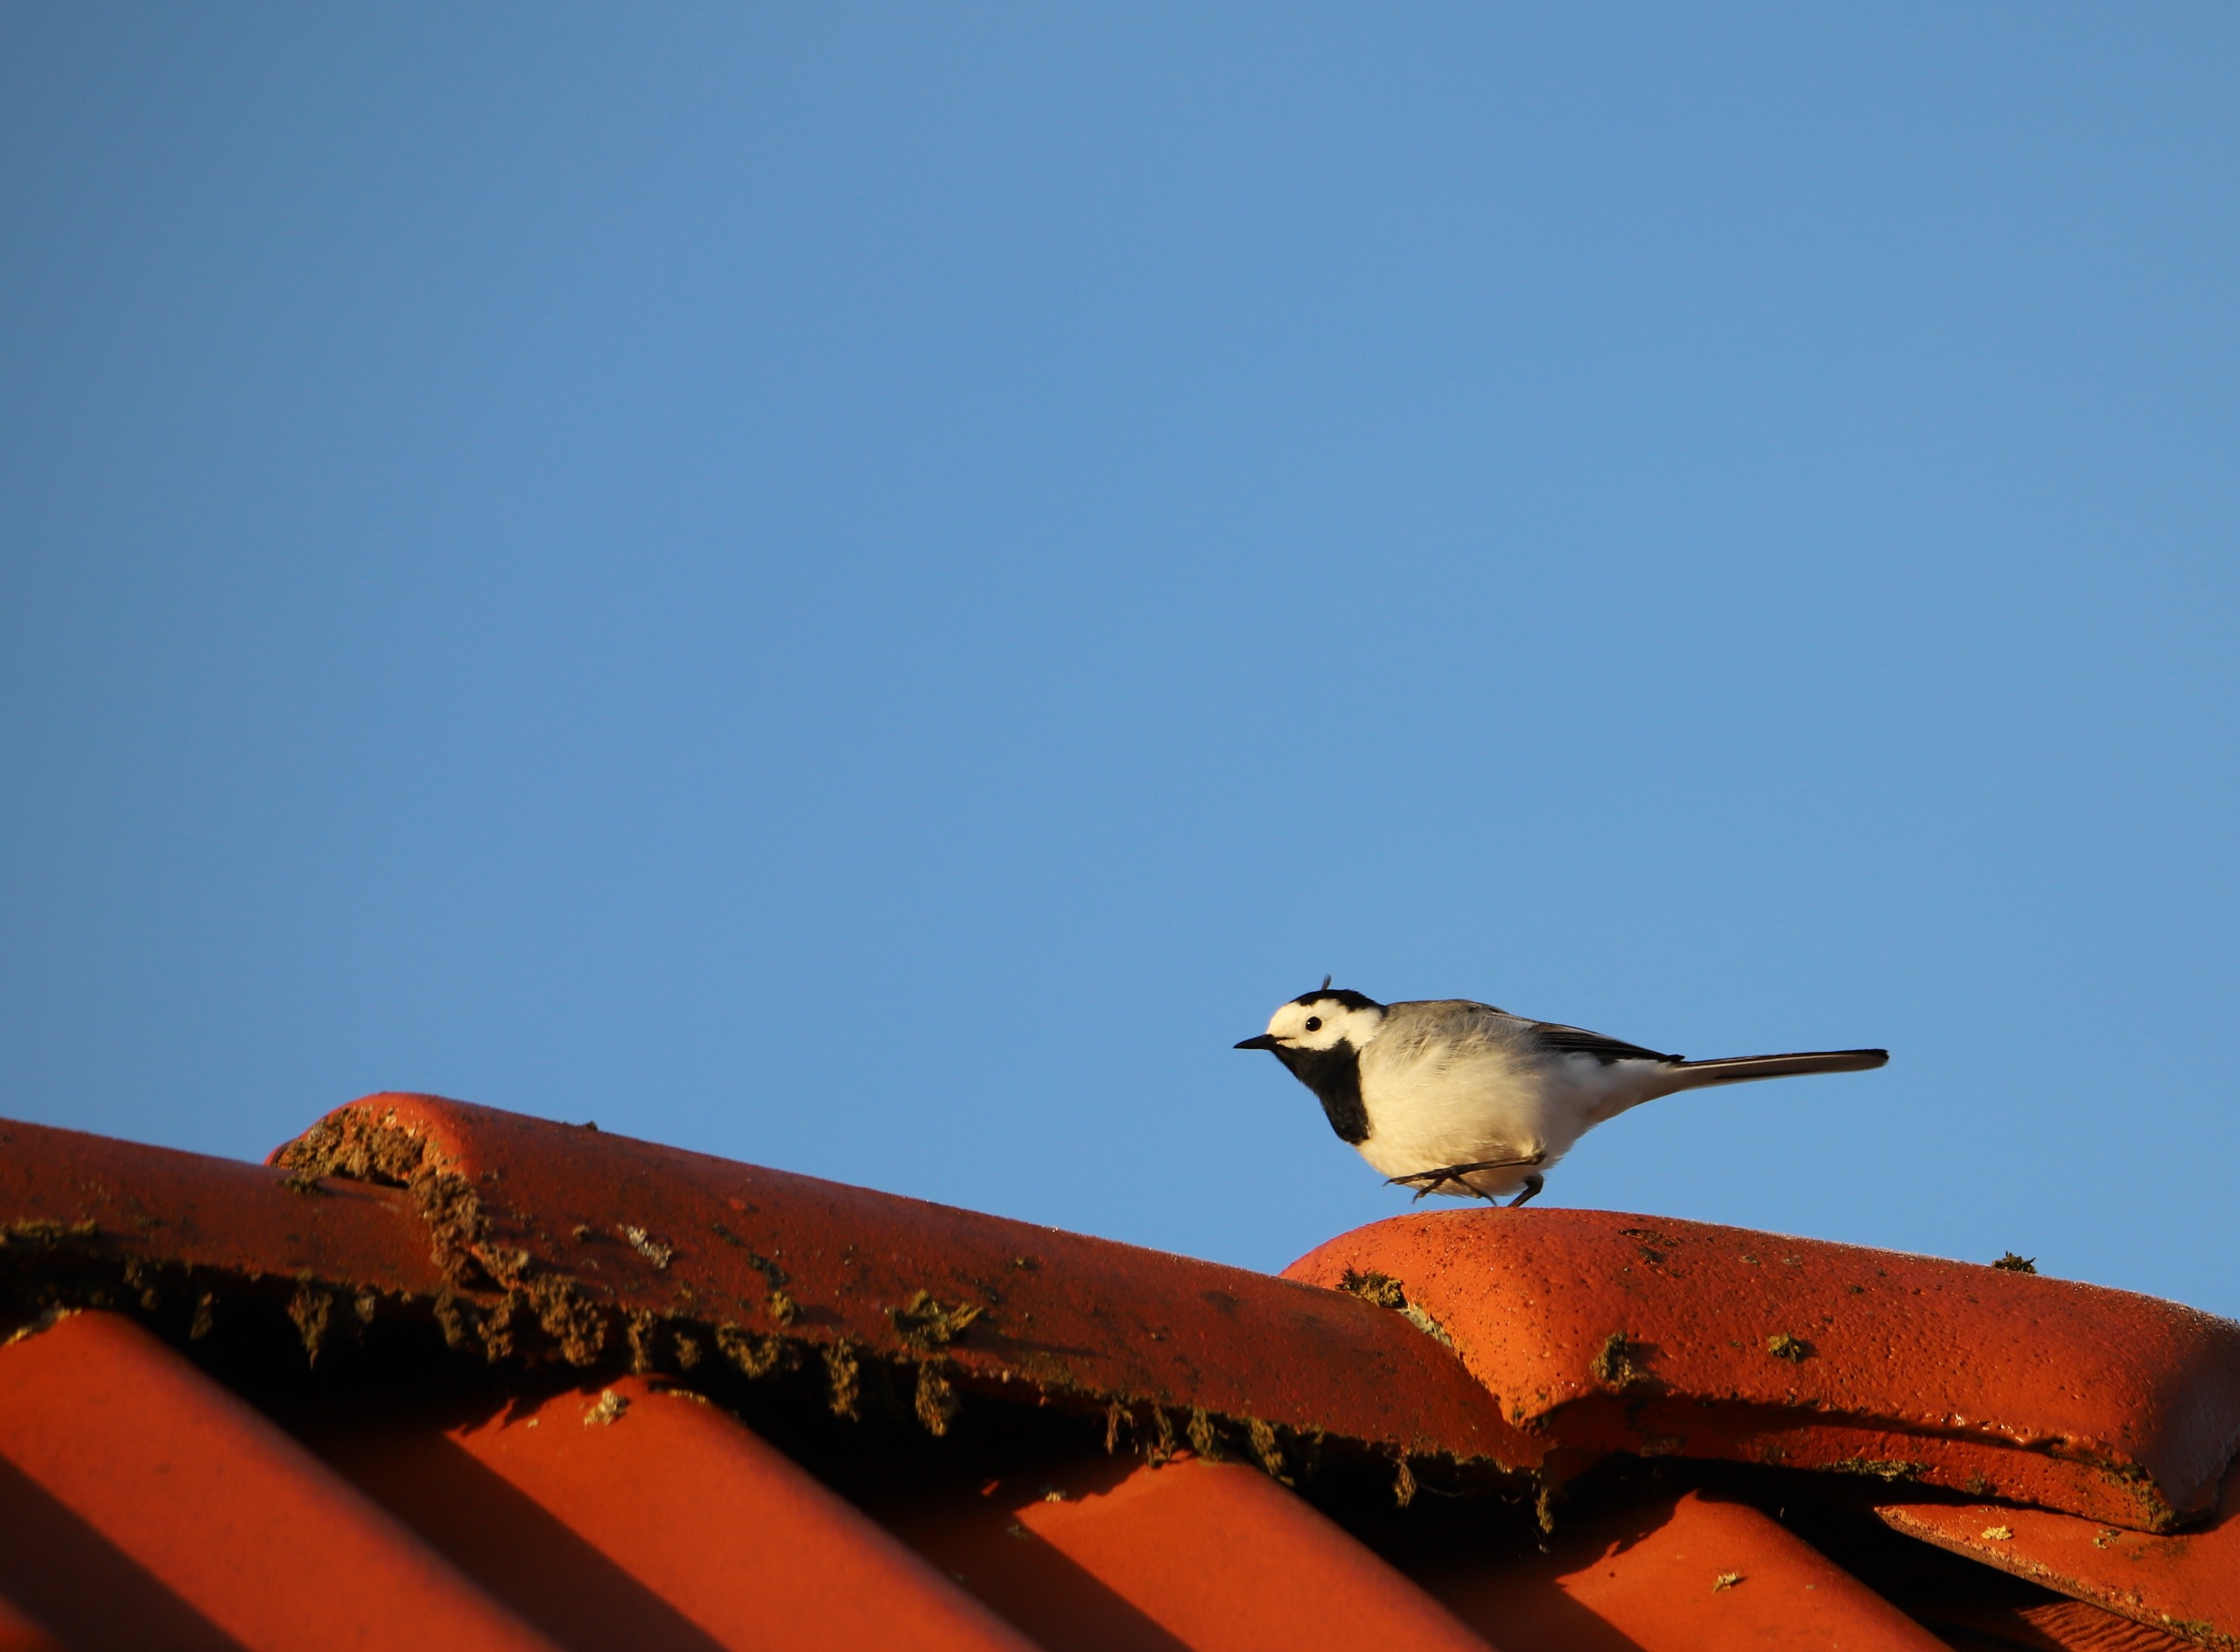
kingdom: Animalia
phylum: Chordata
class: Aves
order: Passeriformes
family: Motacillidae
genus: Motacilla
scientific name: Motacilla alba
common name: Hvid vipstjert
